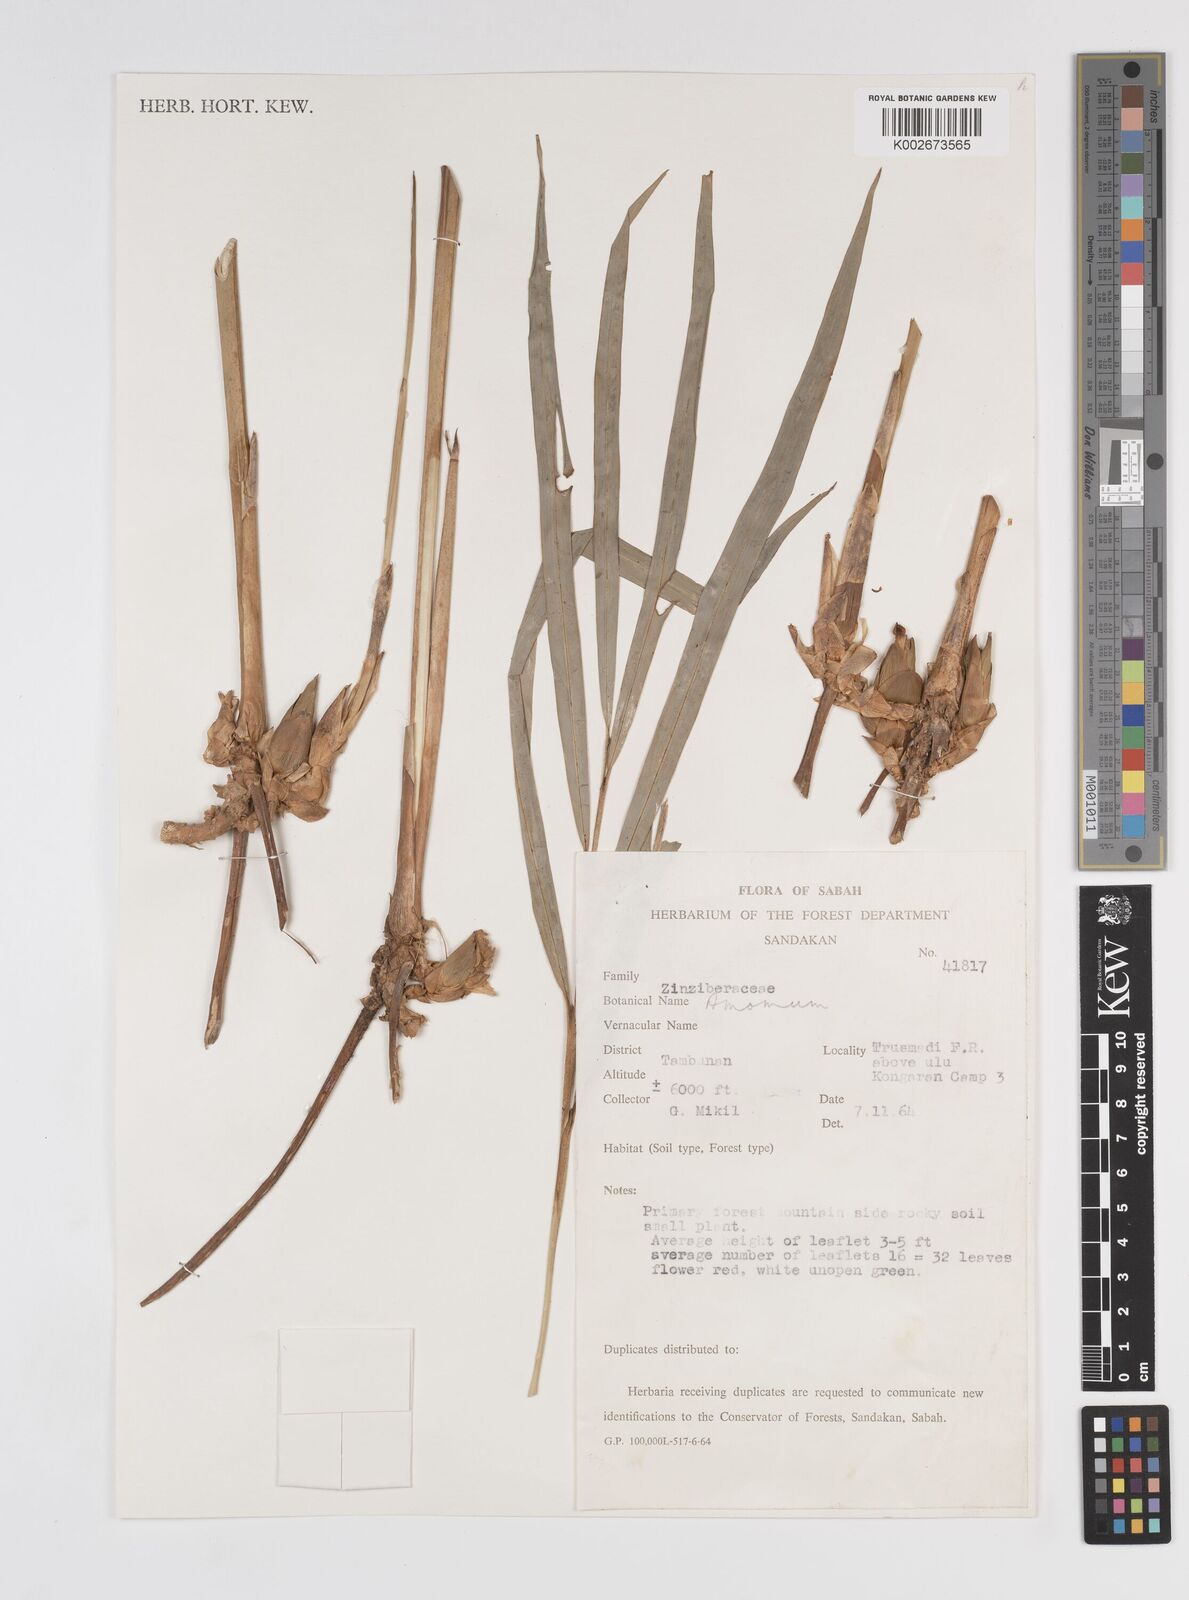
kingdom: Plantae
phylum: Tracheophyta
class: Liliopsida
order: Zingiberales
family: Zingiberaceae
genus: Amomum
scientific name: Amomum
